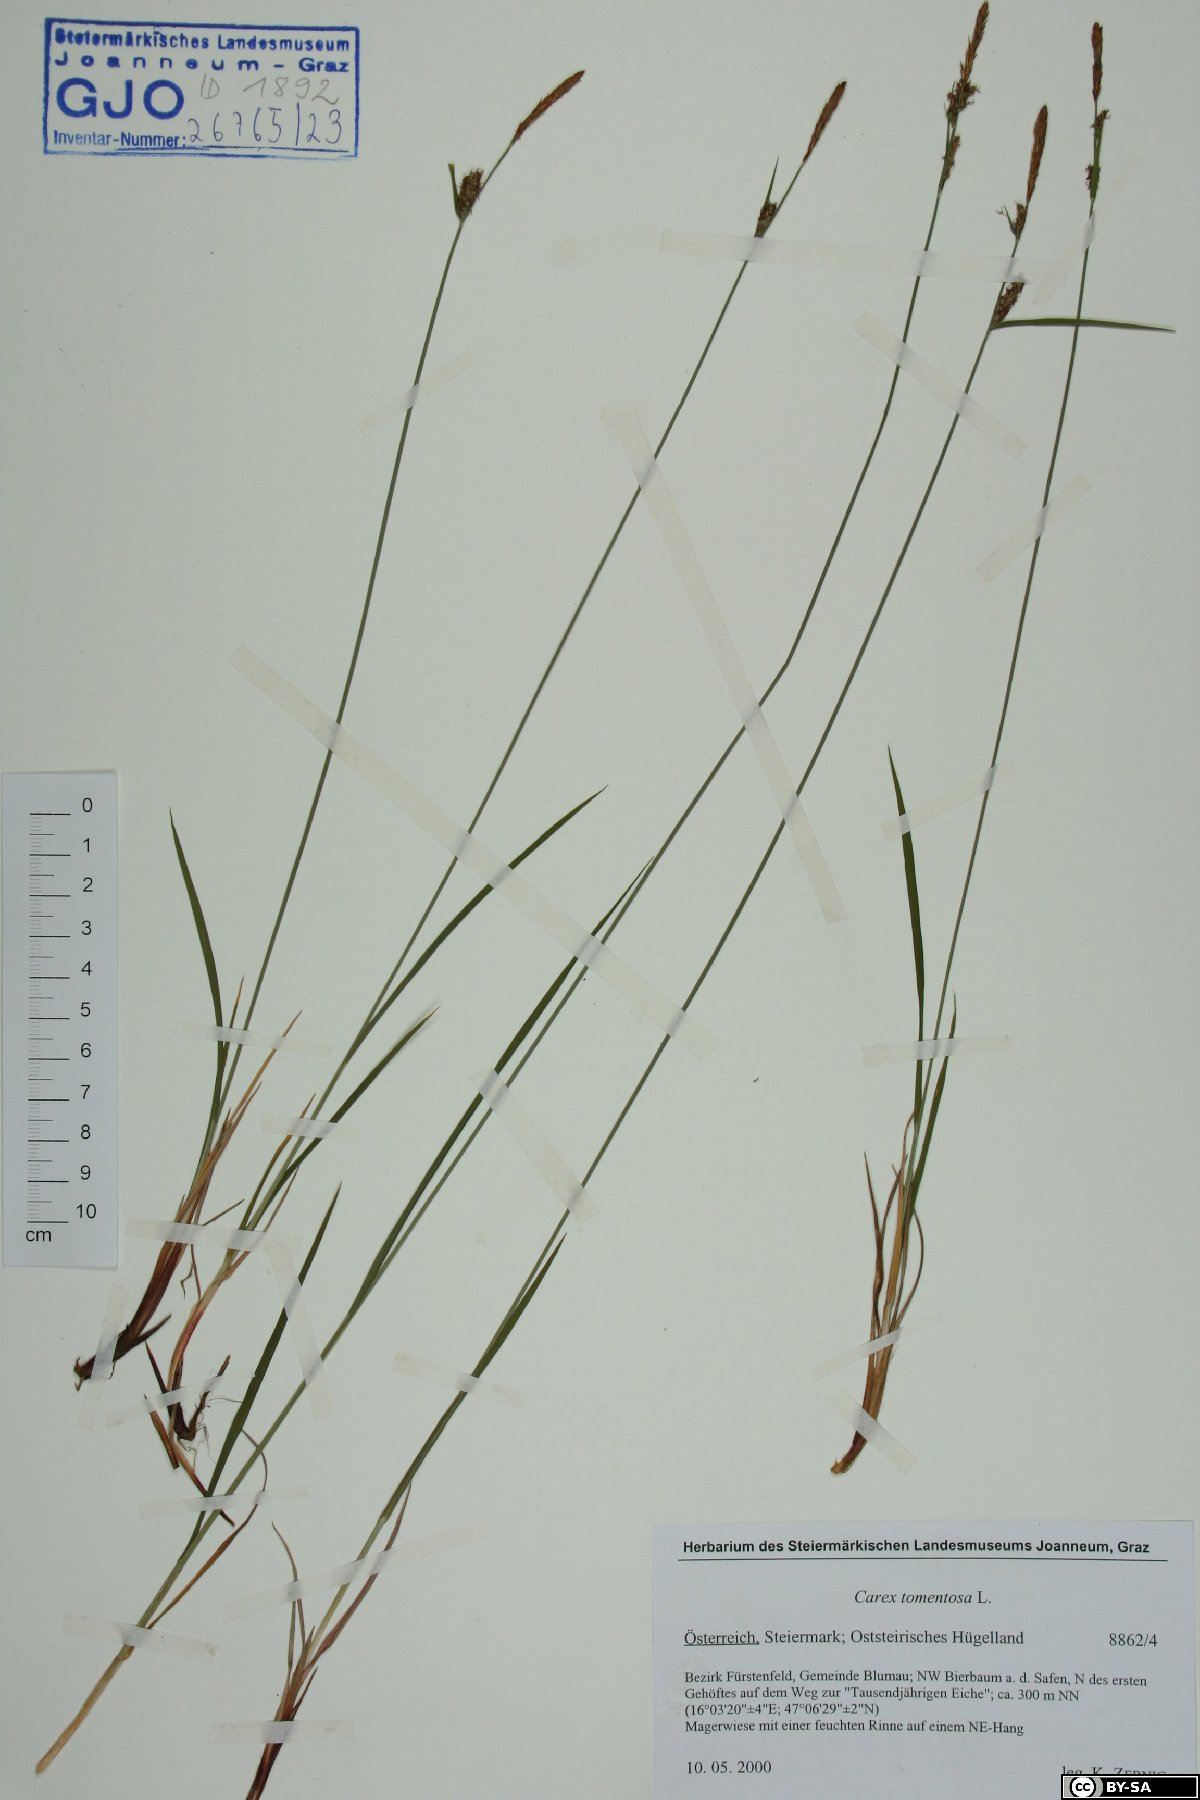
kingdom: Plantae
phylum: Tracheophyta
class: Liliopsida
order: Poales
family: Cyperaceae
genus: Carex
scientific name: Carex tomentosa
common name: Downy-fruited sedge
